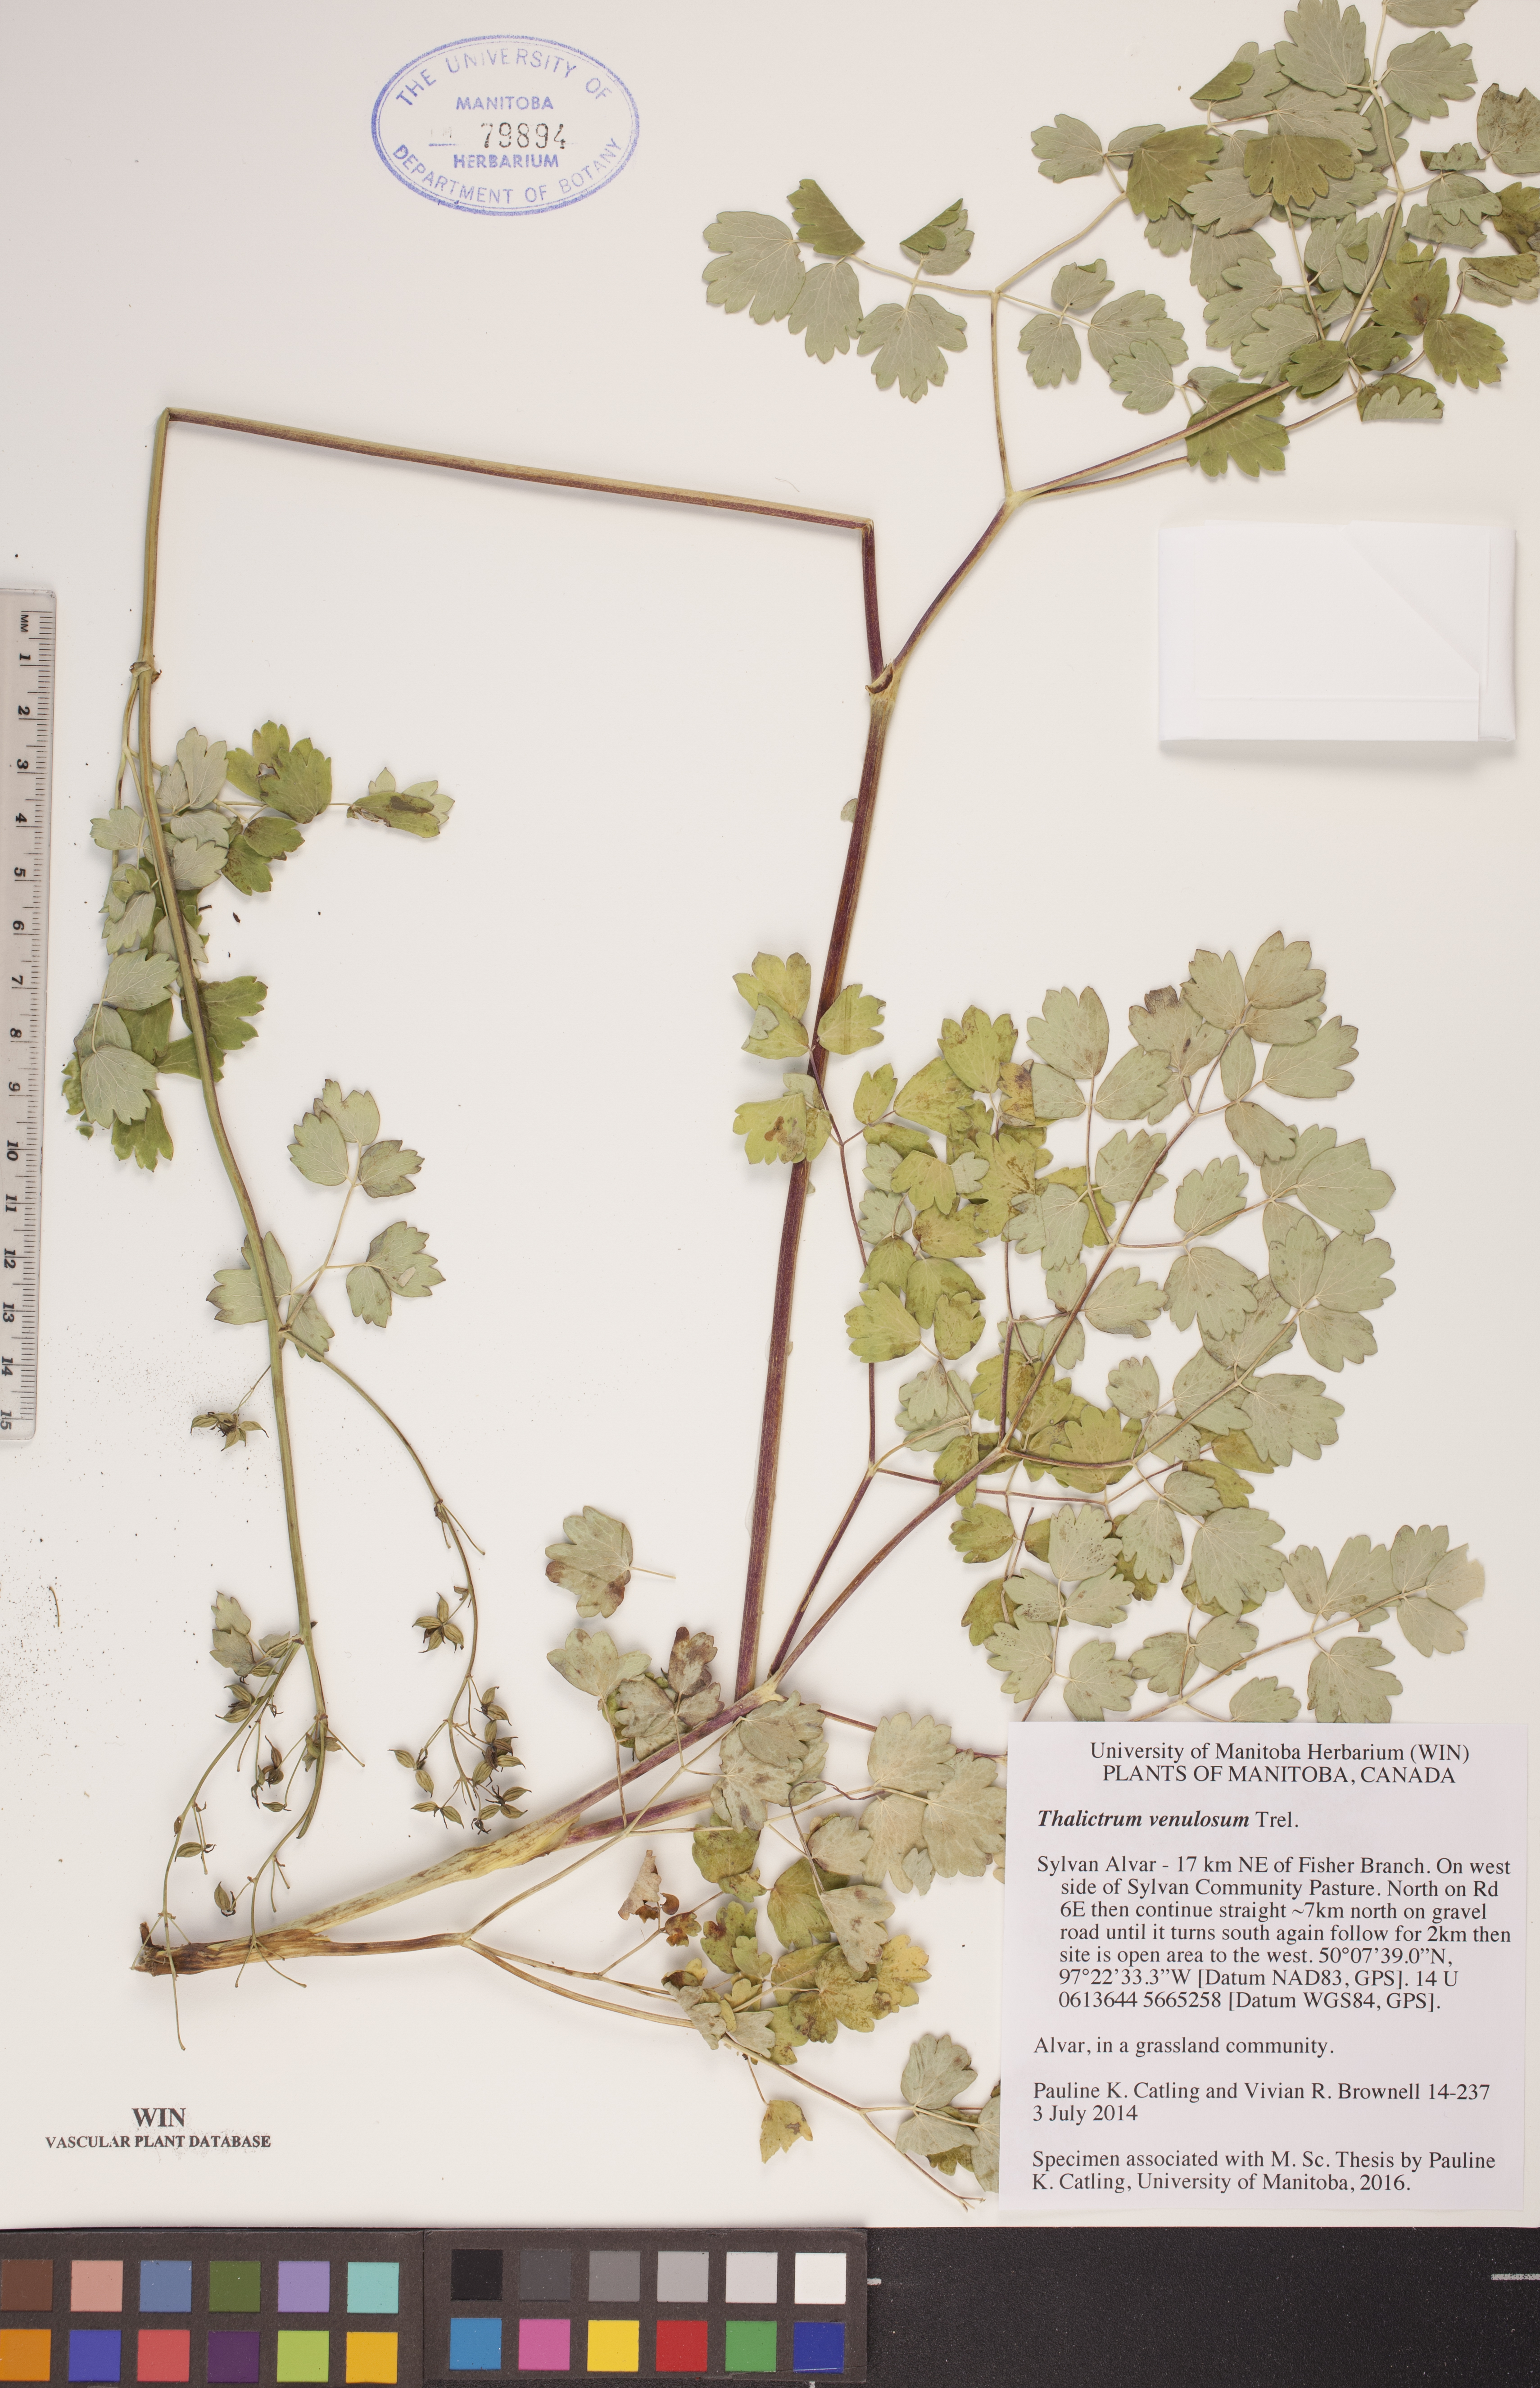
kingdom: Plantae
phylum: Tracheophyta
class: Magnoliopsida
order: Ranunculales
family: Ranunculaceae
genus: Thalictrum
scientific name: Thalictrum venulosum
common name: Early meadow-rue
